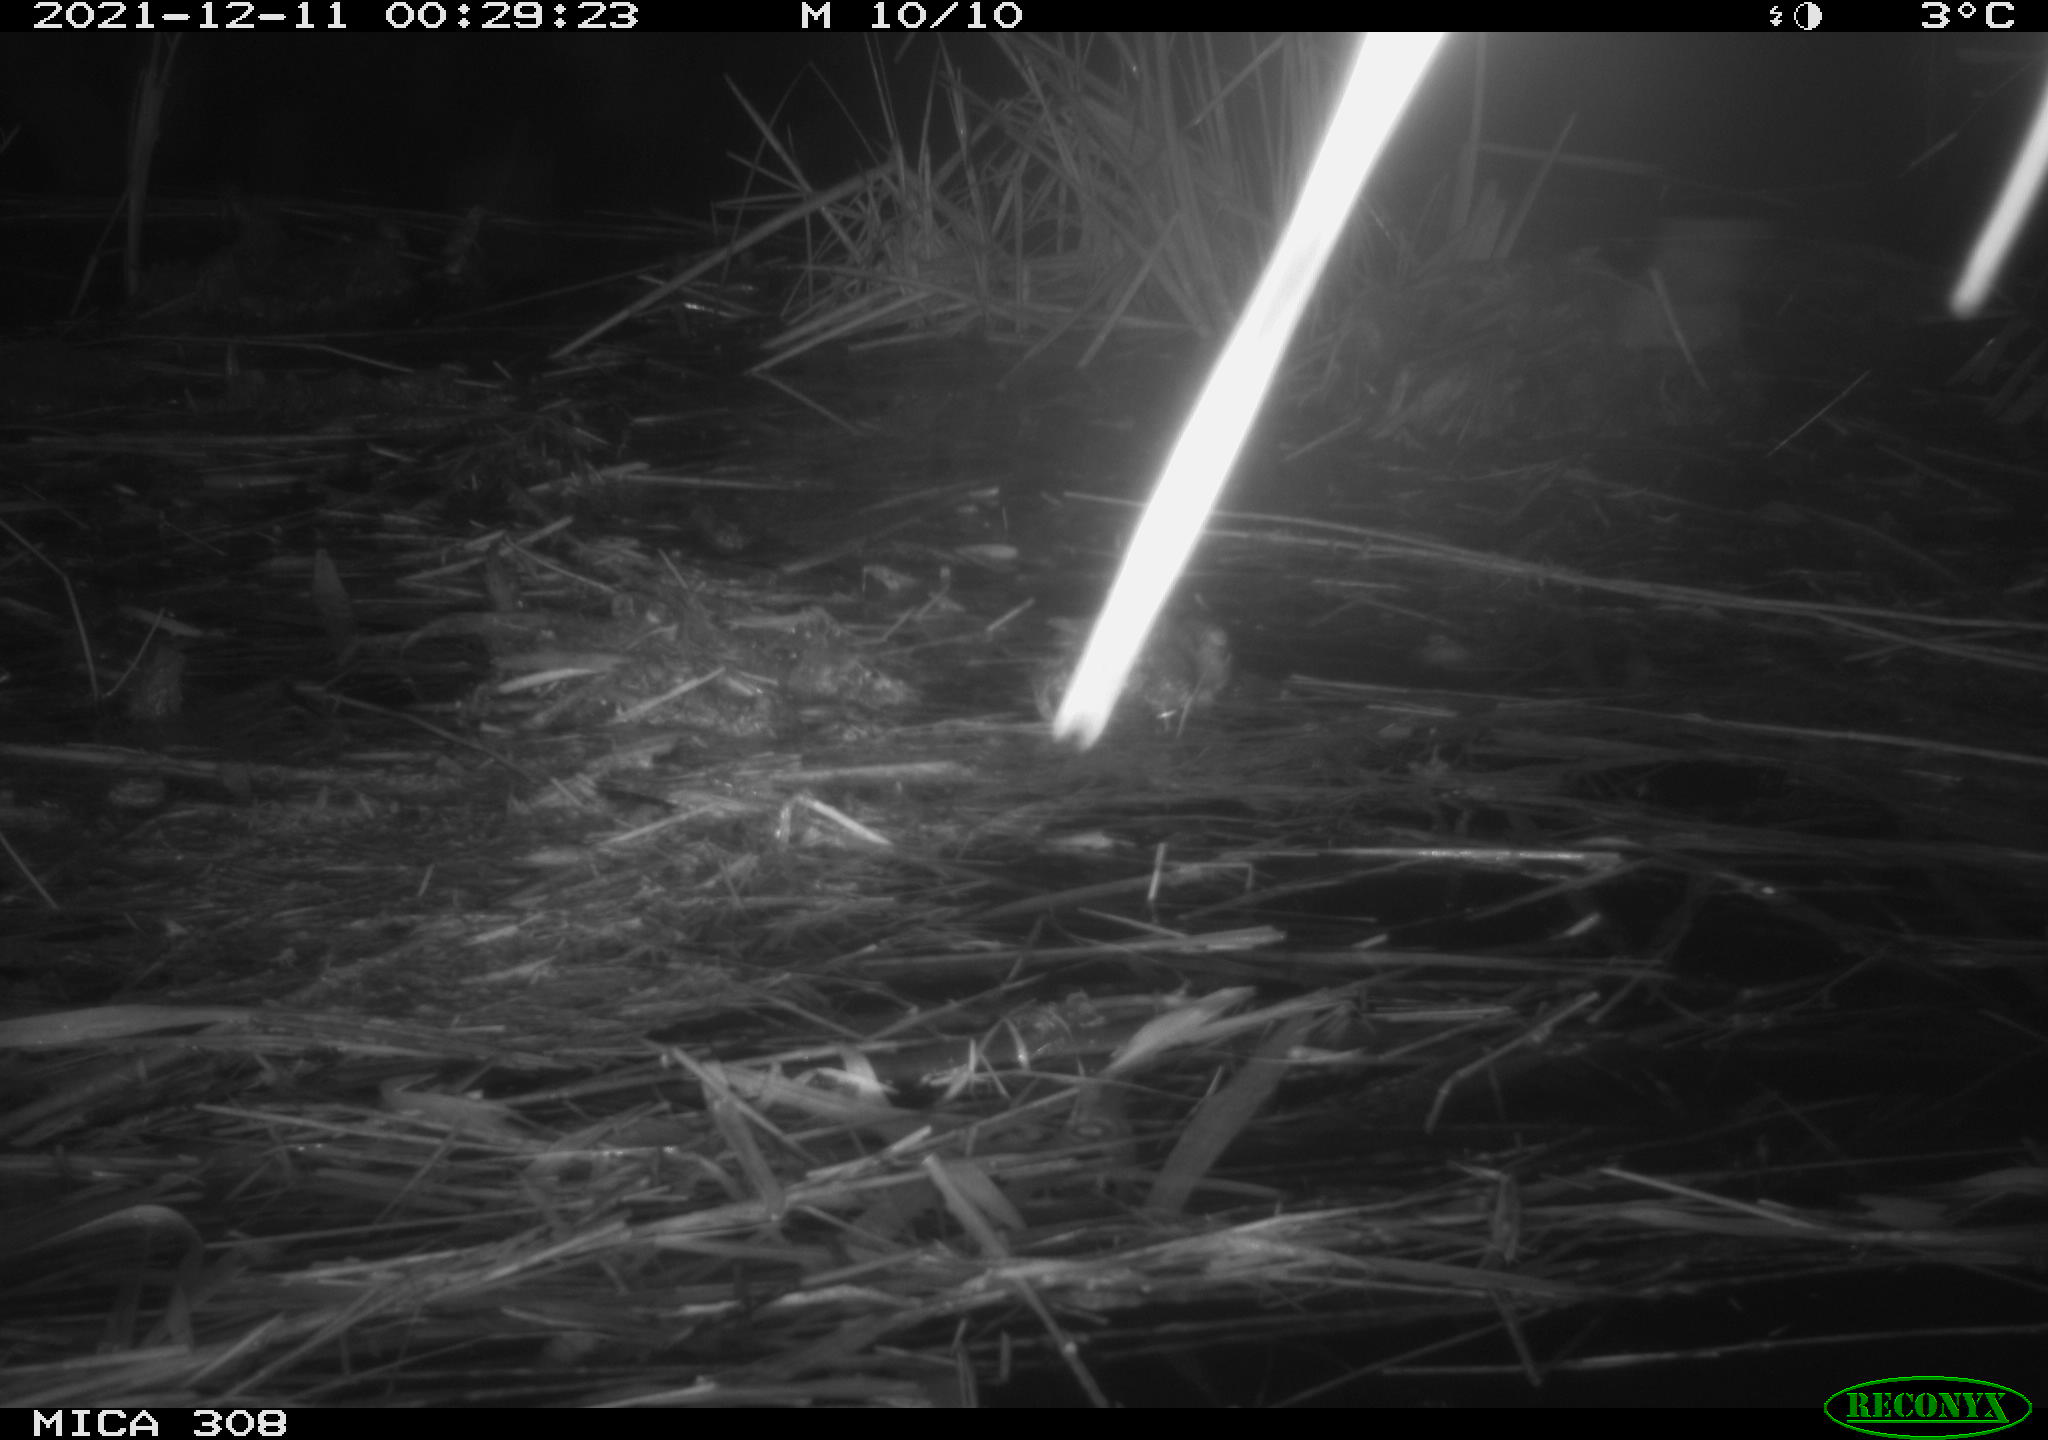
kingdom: Animalia
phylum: Chordata
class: Mammalia
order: Rodentia
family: Muridae
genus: Rattus
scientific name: Rattus norvegicus
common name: Brown rat
